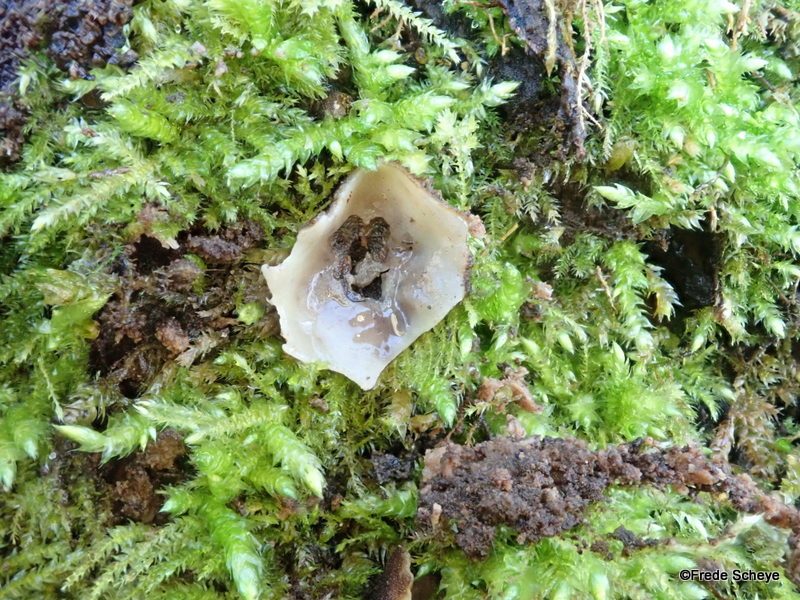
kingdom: Fungi
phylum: Ascomycota
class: Pezizomycetes
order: Pezizales
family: Pyronemataceae
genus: Humaria
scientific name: Humaria hemisphaerica
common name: halvkugleformet børstebæger
